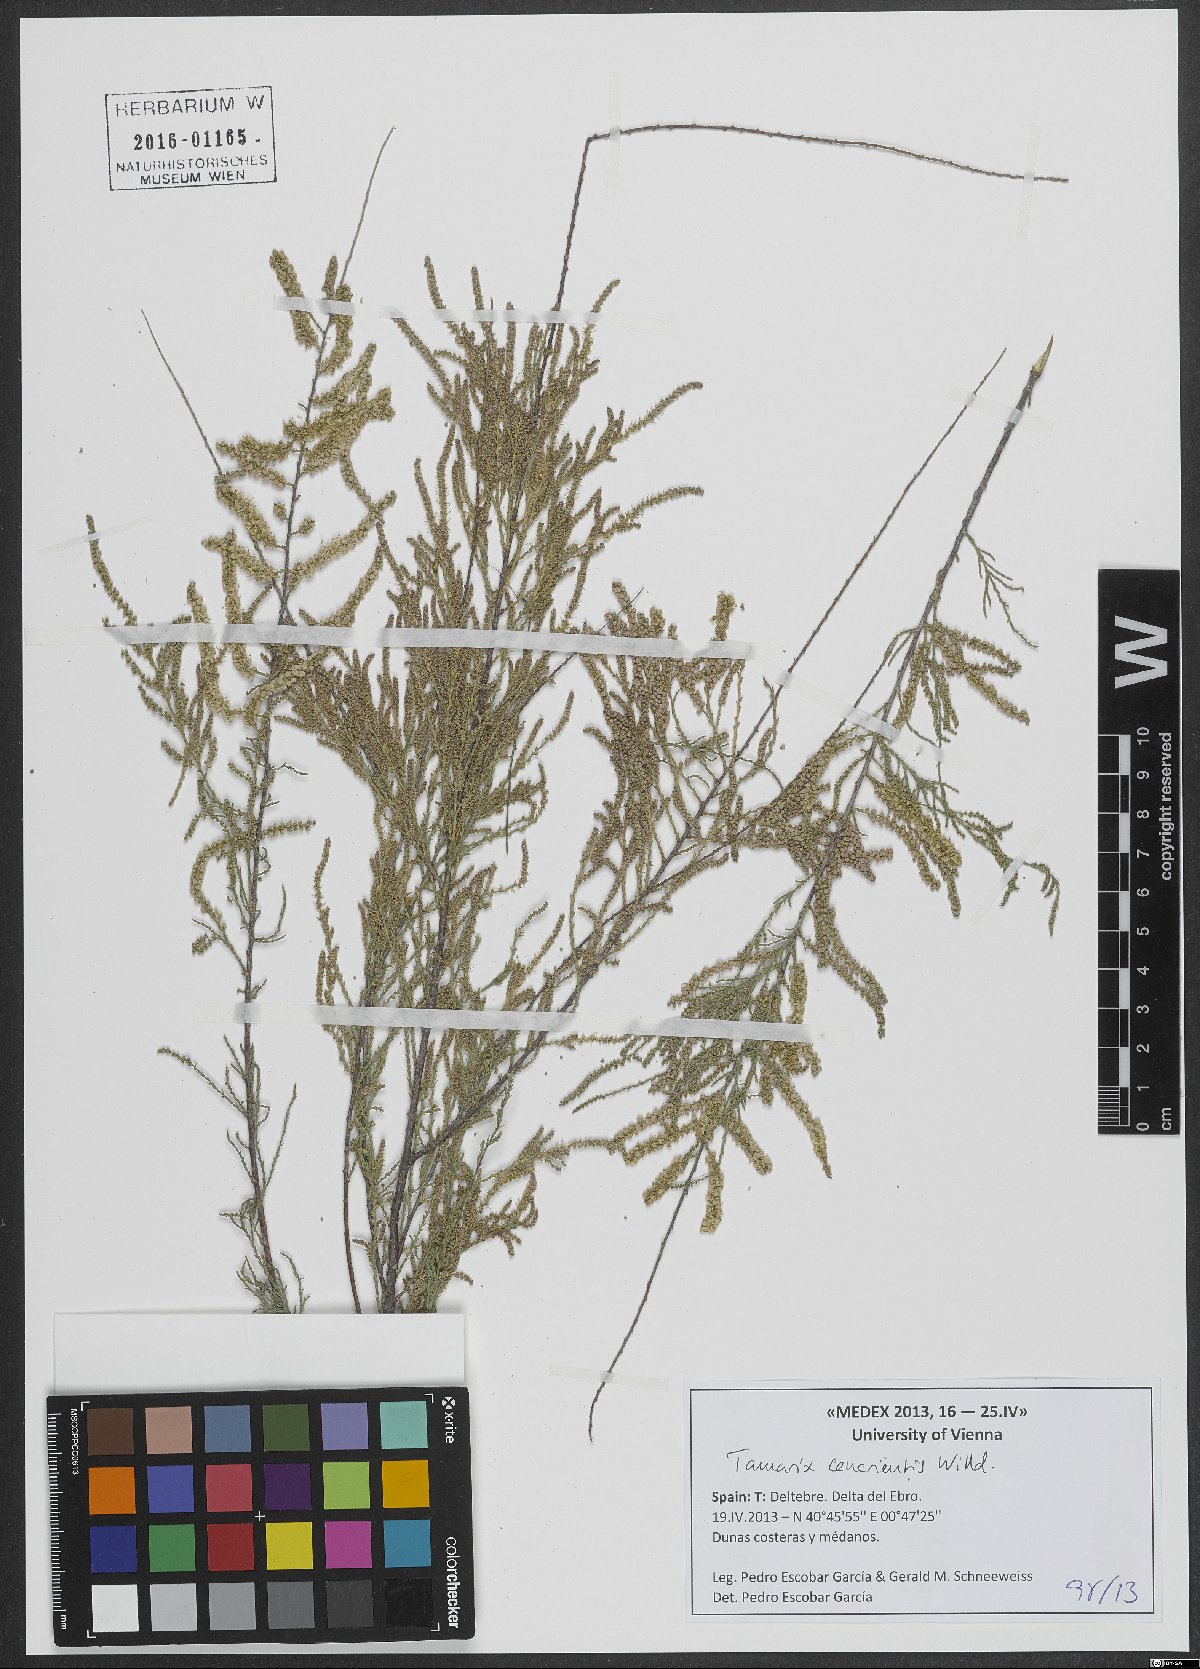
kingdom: Plantae
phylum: Tracheophyta
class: Magnoliopsida
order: Caryophyllales
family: Tamaricaceae
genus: Tamarix
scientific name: Tamarix canariensis
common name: Canary island tamarisk
